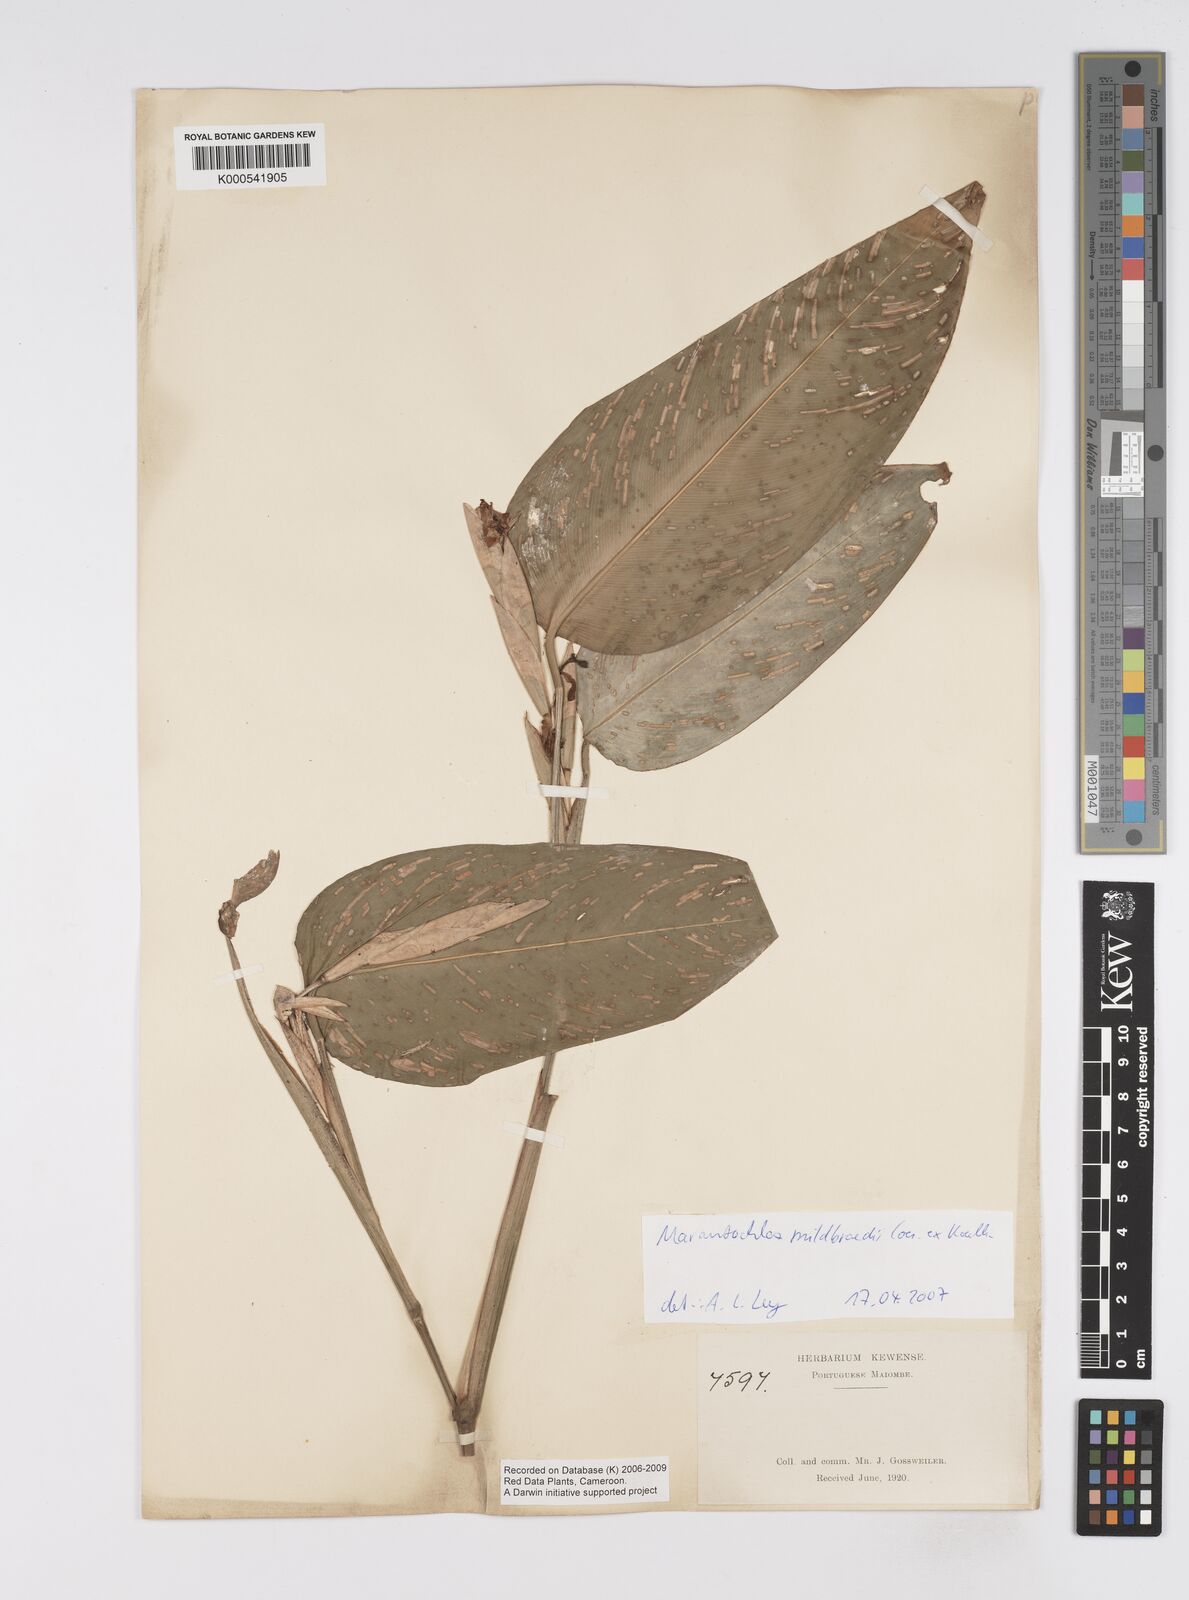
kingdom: Plantae
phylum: Tracheophyta
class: Liliopsida
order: Zingiberales
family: Marantaceae
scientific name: Marantaceae
